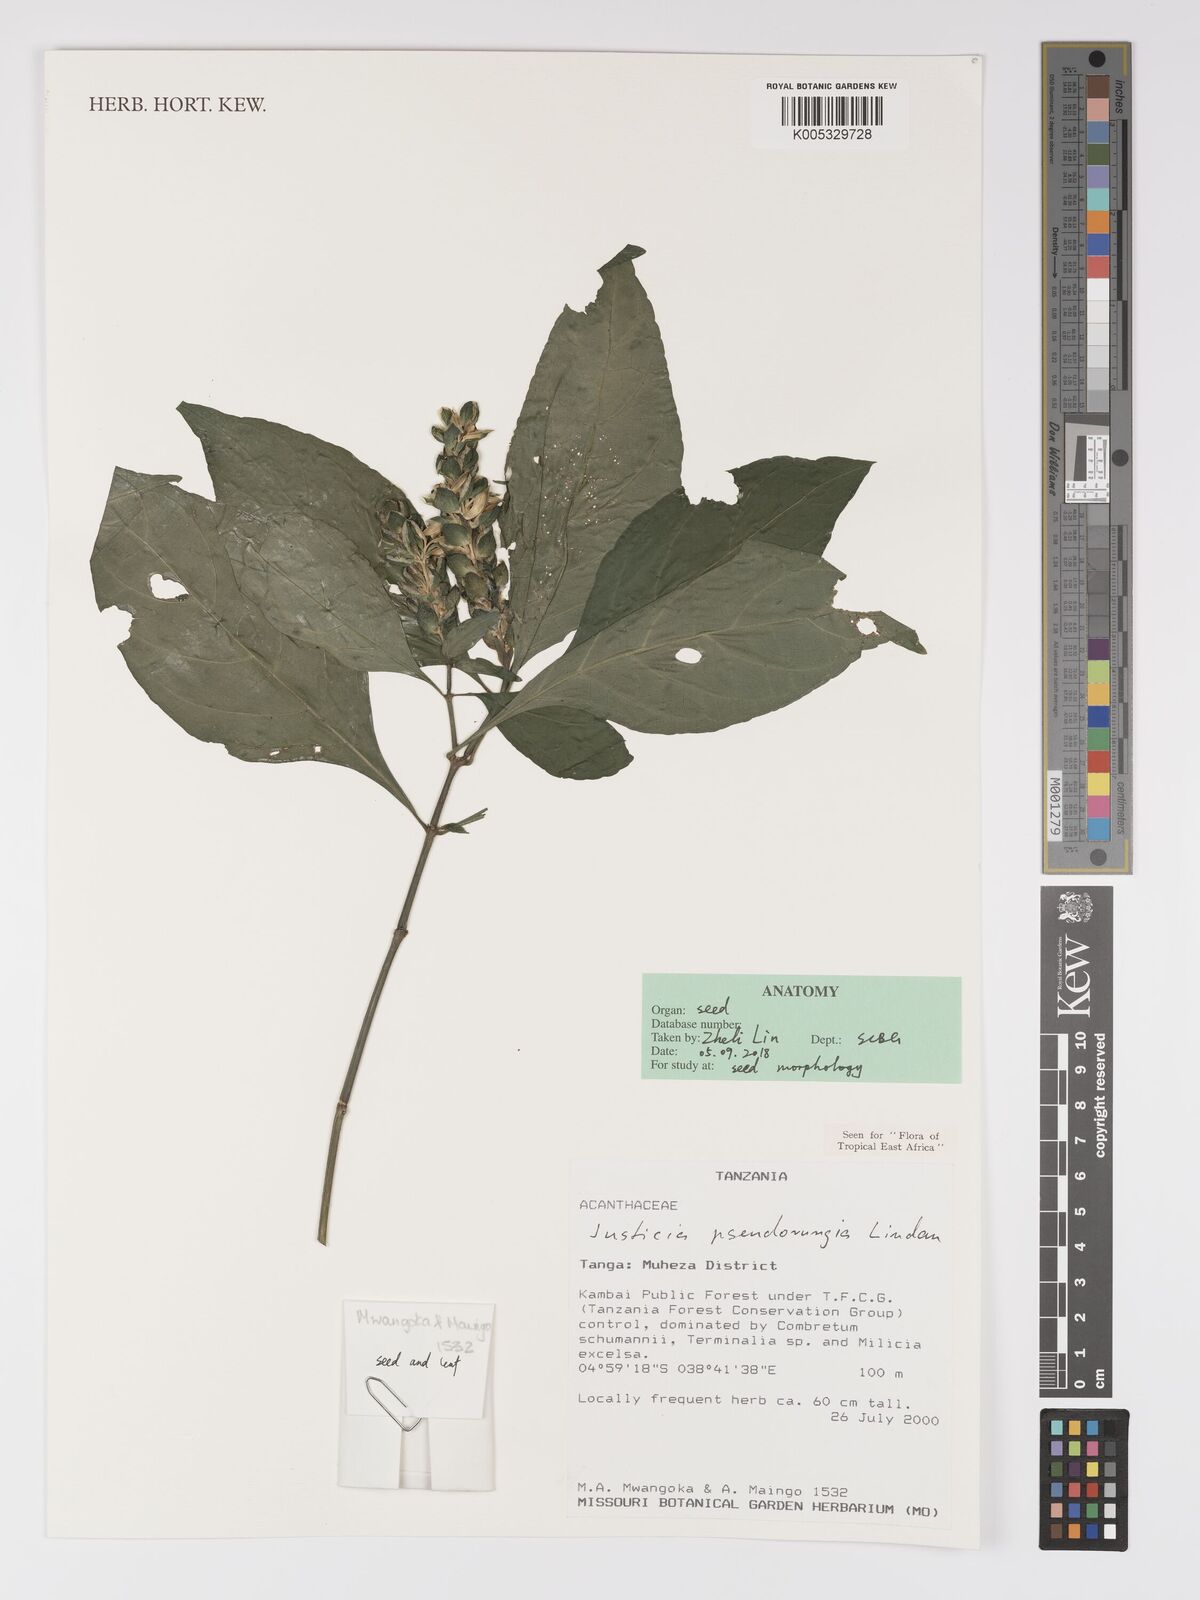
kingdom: Plantae
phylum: Tracheophyta
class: Magnoliopsida
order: Lamiales
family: Acanthaceae
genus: Justicia
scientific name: Justicia pseudorungia
